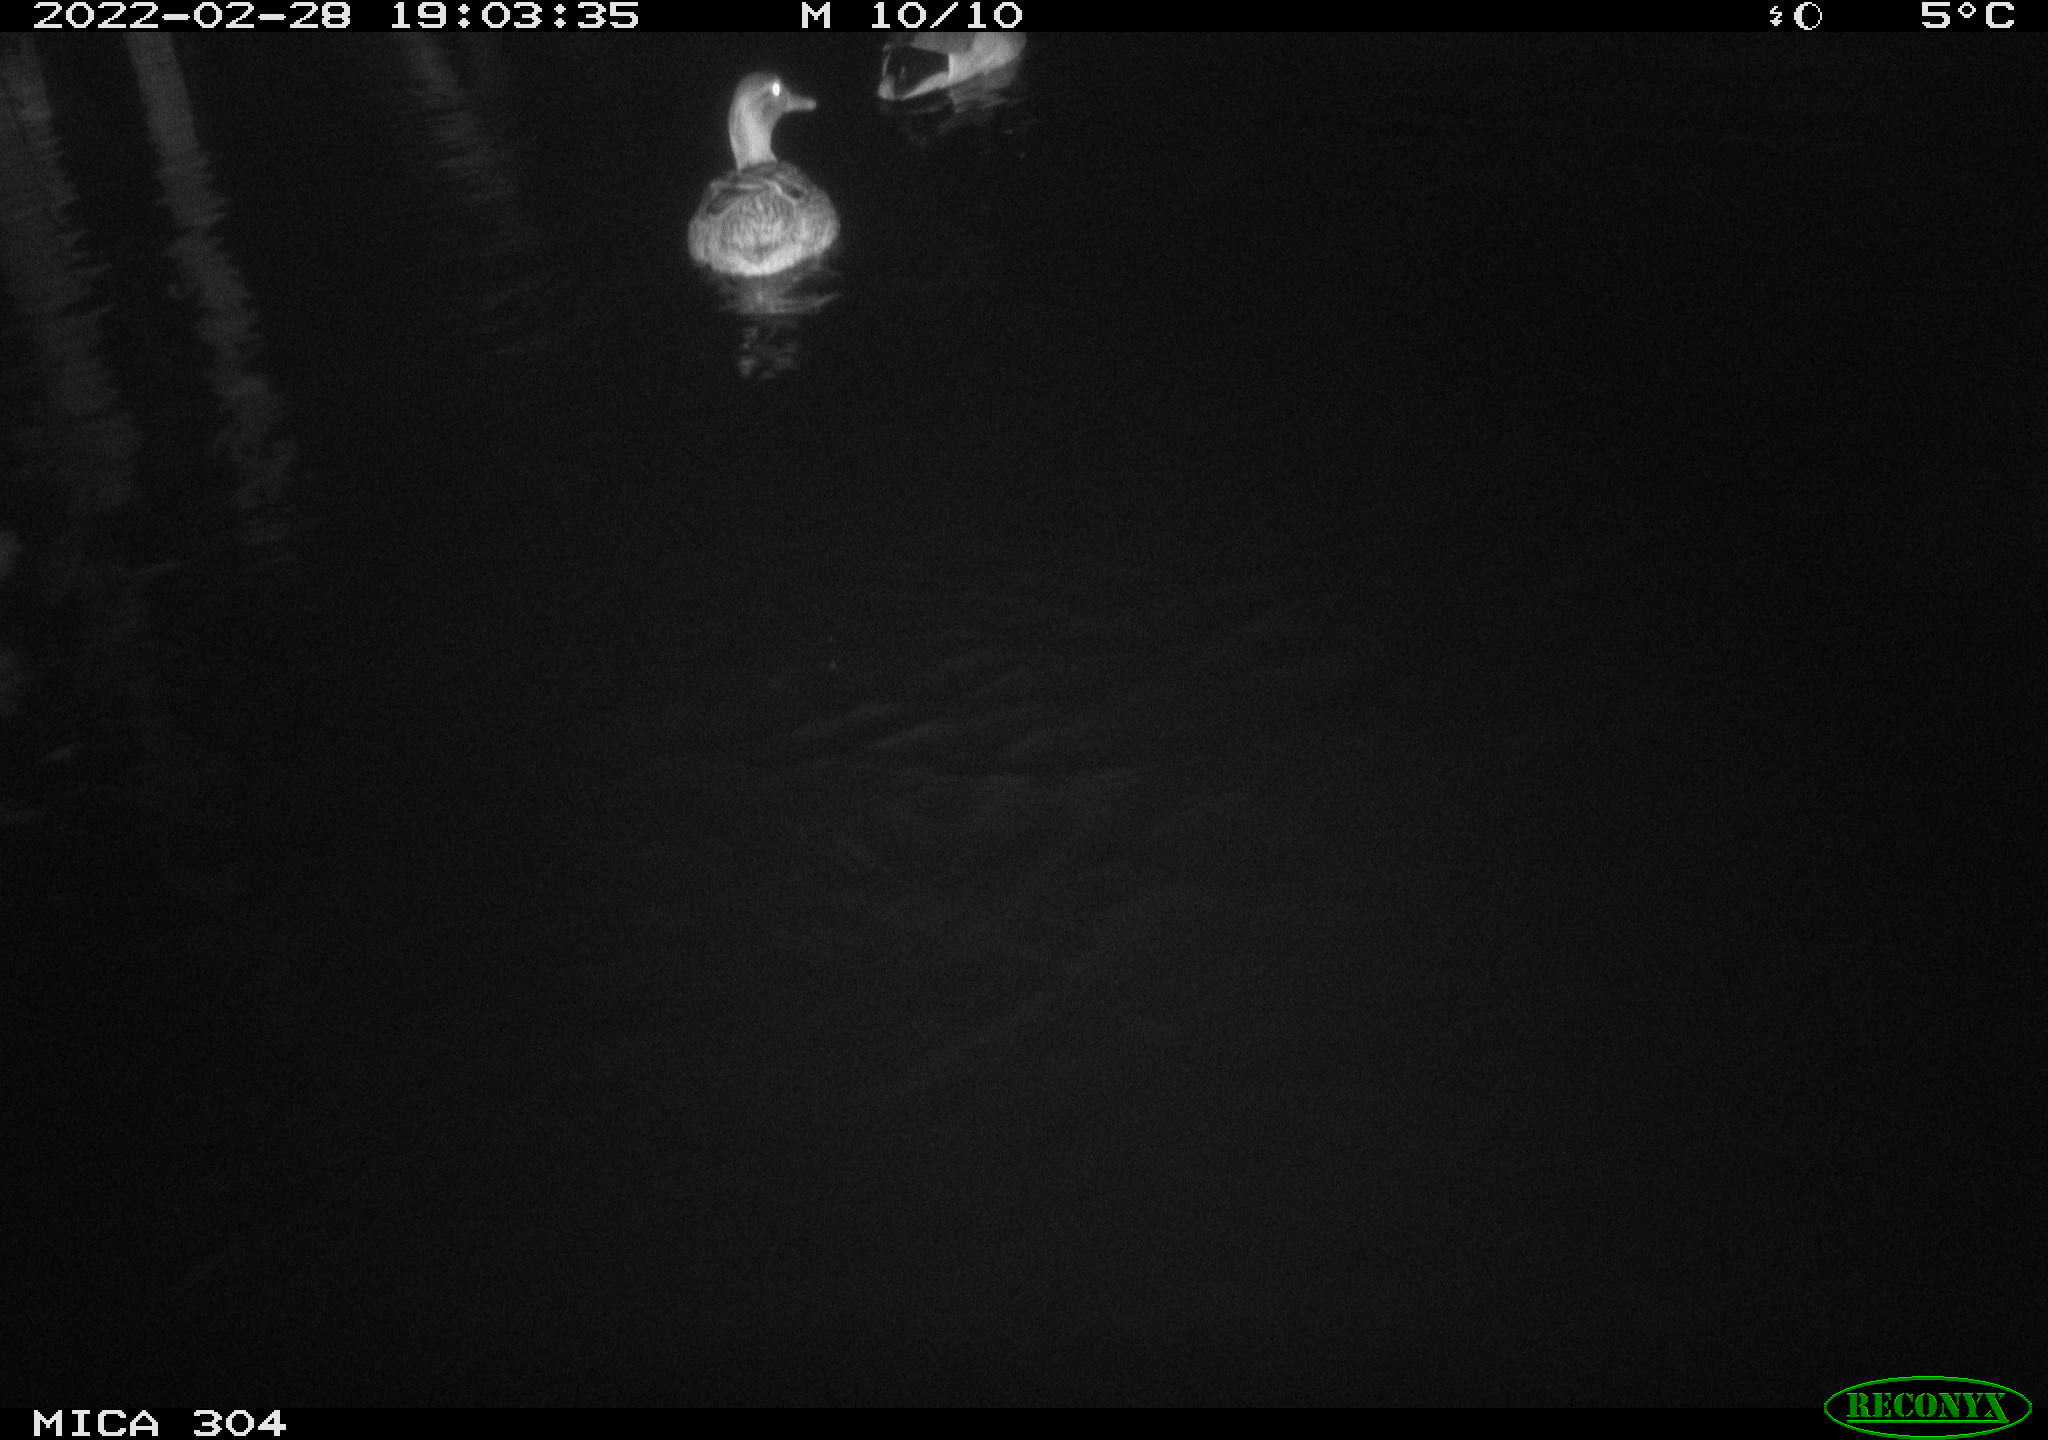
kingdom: Animalia
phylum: Chordata
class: Aves
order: Anseriformes
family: Anatidae
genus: Anas
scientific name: Anas platyrhynchos
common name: Mallard
